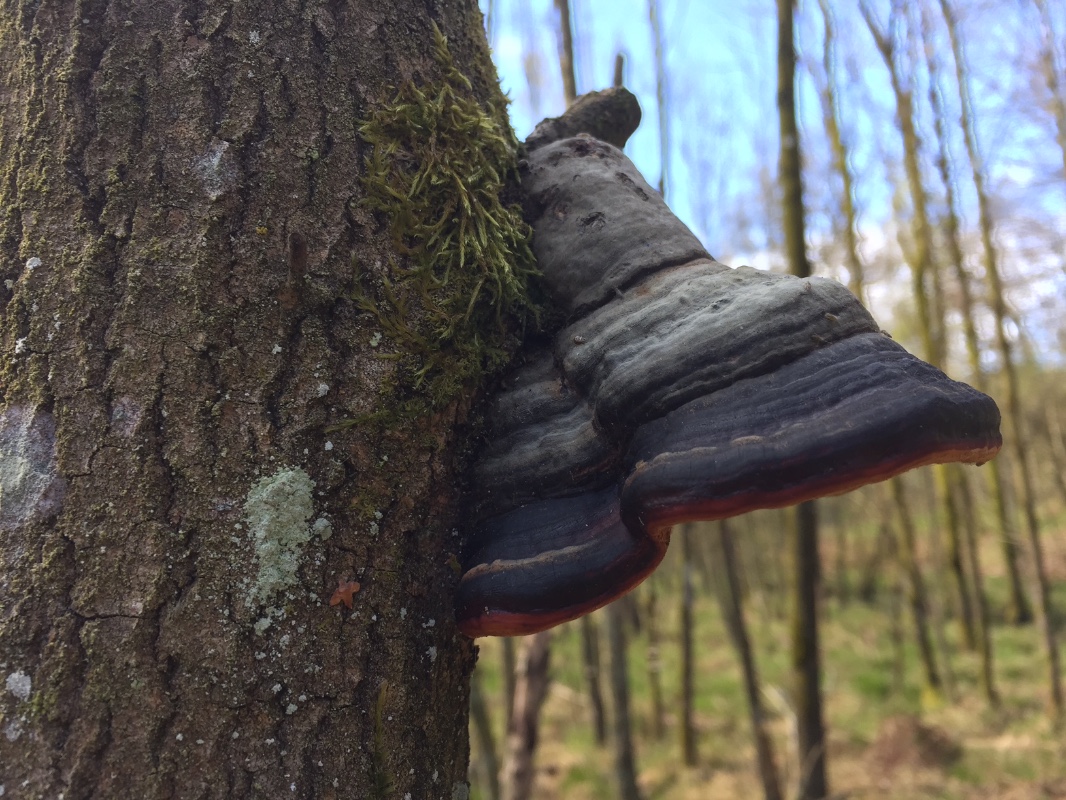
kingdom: Fungi
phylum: Basidiomycota
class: Agaricomycetes
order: Polyporales
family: Fomitopsidaceae
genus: Fomitopsis
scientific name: Fomitopsis pinicola
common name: randbæltet hovporesvamp
